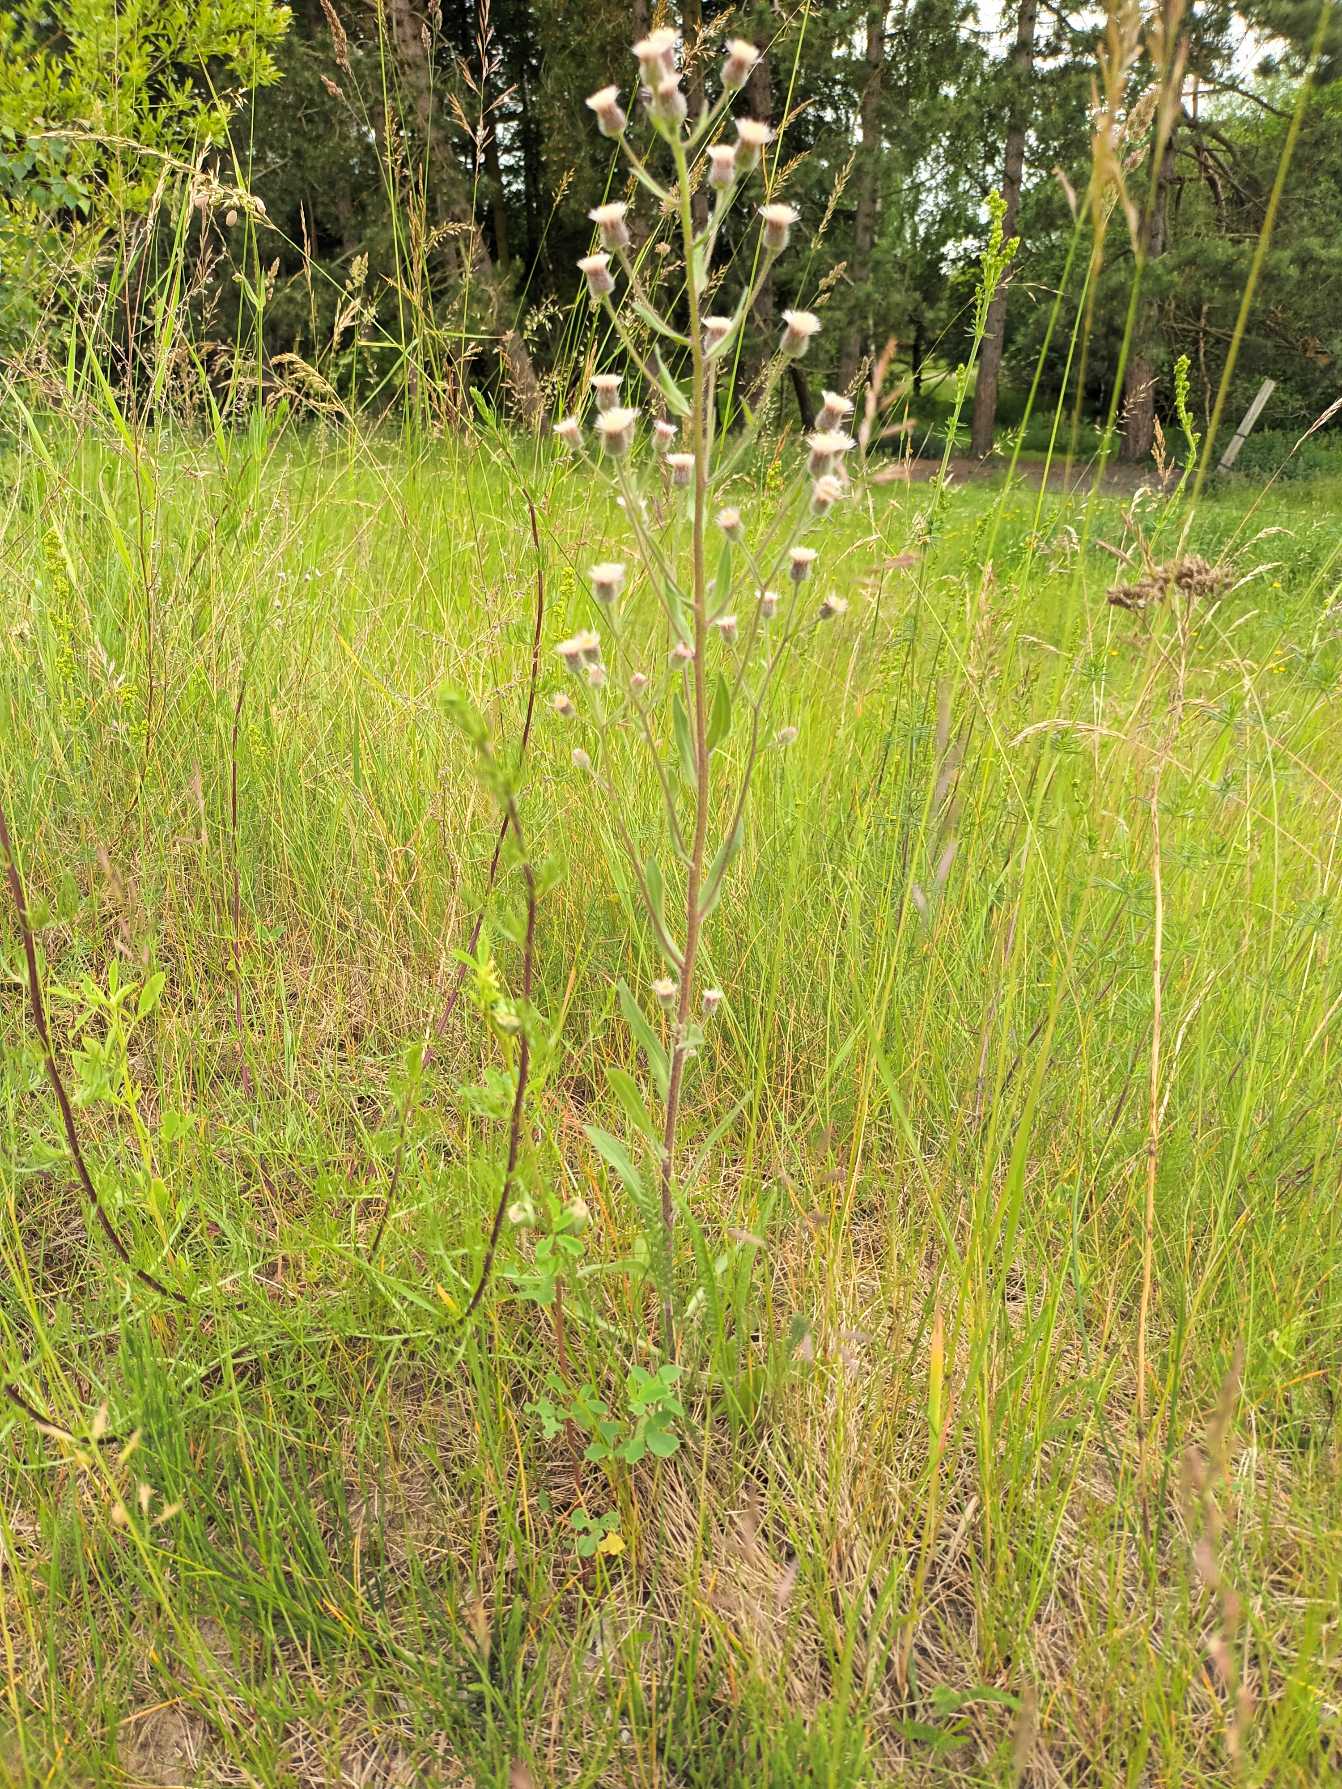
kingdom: Plantae
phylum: Tracheophyta
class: Magnoliopsida
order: Asterales
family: Asteraceae
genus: Erigeron
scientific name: Erigeron acris
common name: Bitter bakkestjerne
